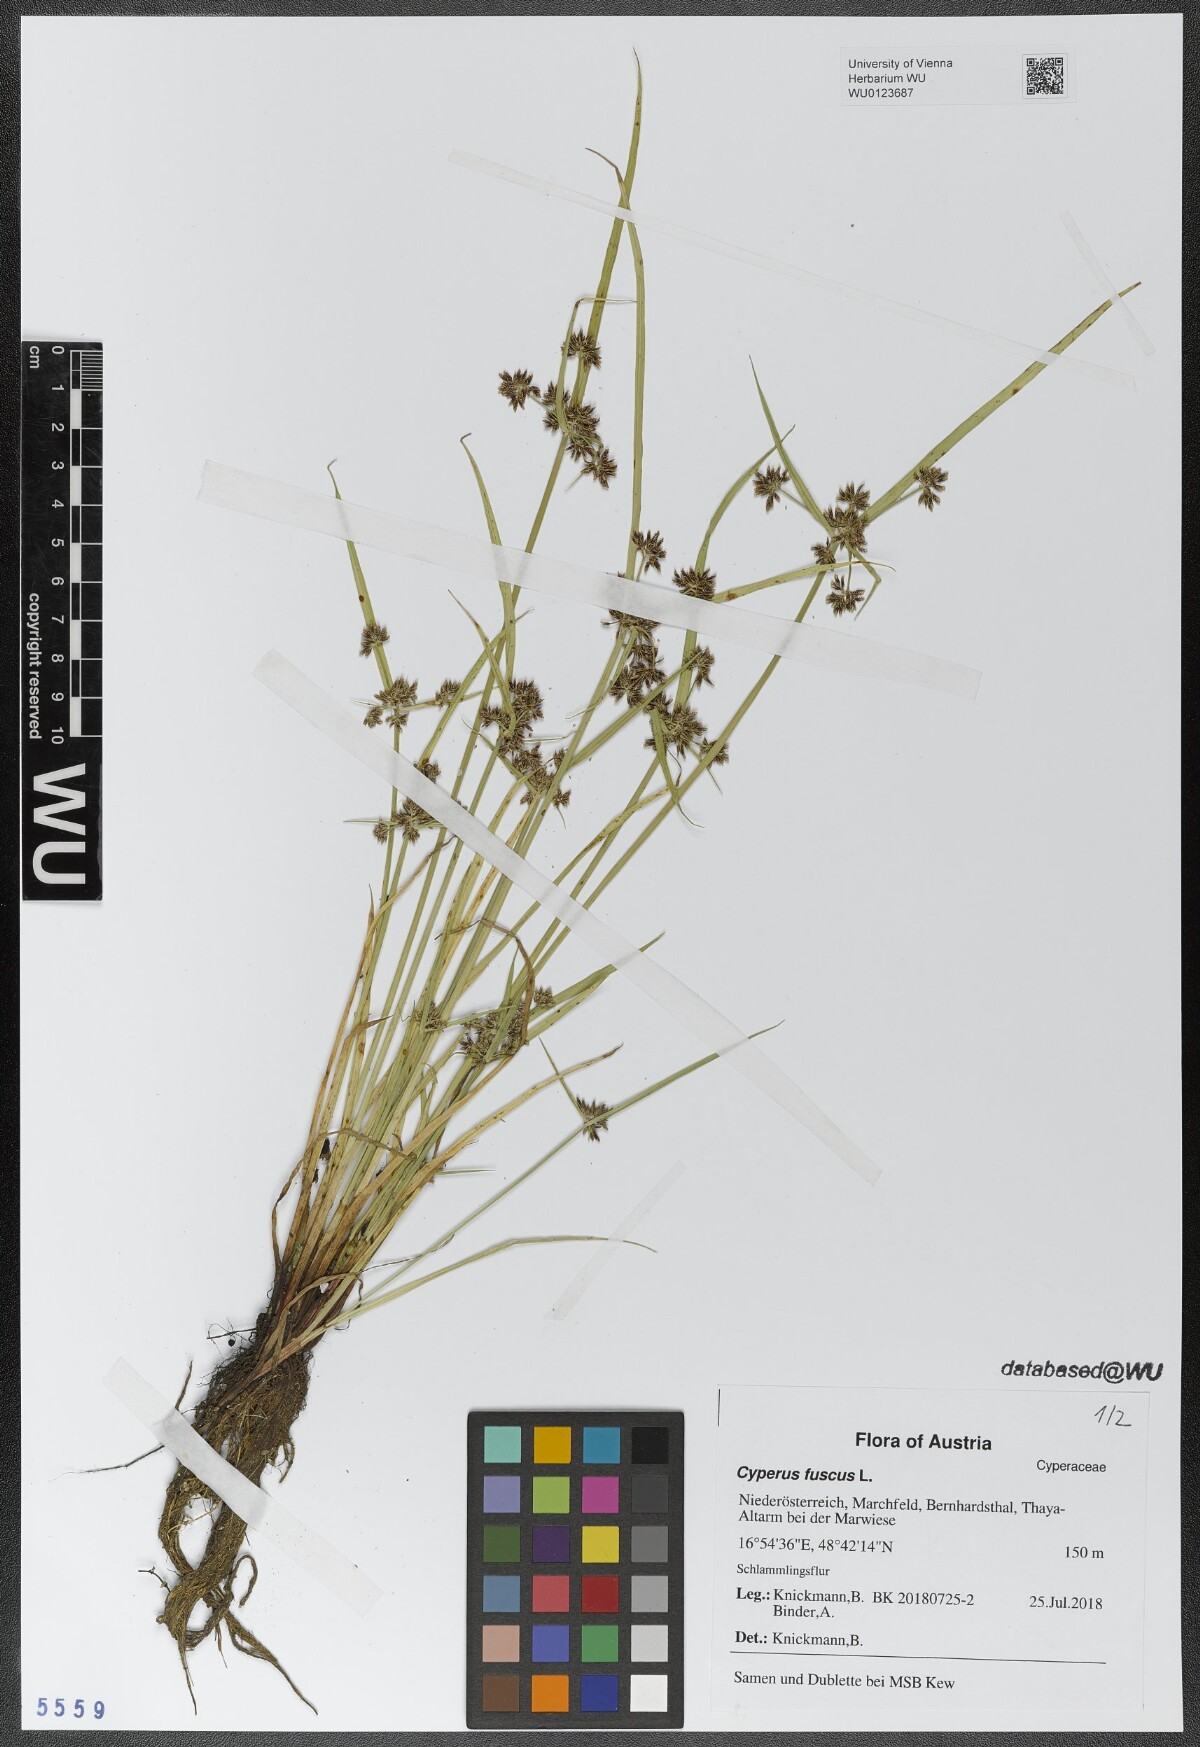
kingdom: Plantae
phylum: Tracheophyta
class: Liliopsida
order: Poales
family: Cyperaceae
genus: Cyperus
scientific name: Cyperus fuscus
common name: Brown galingale
